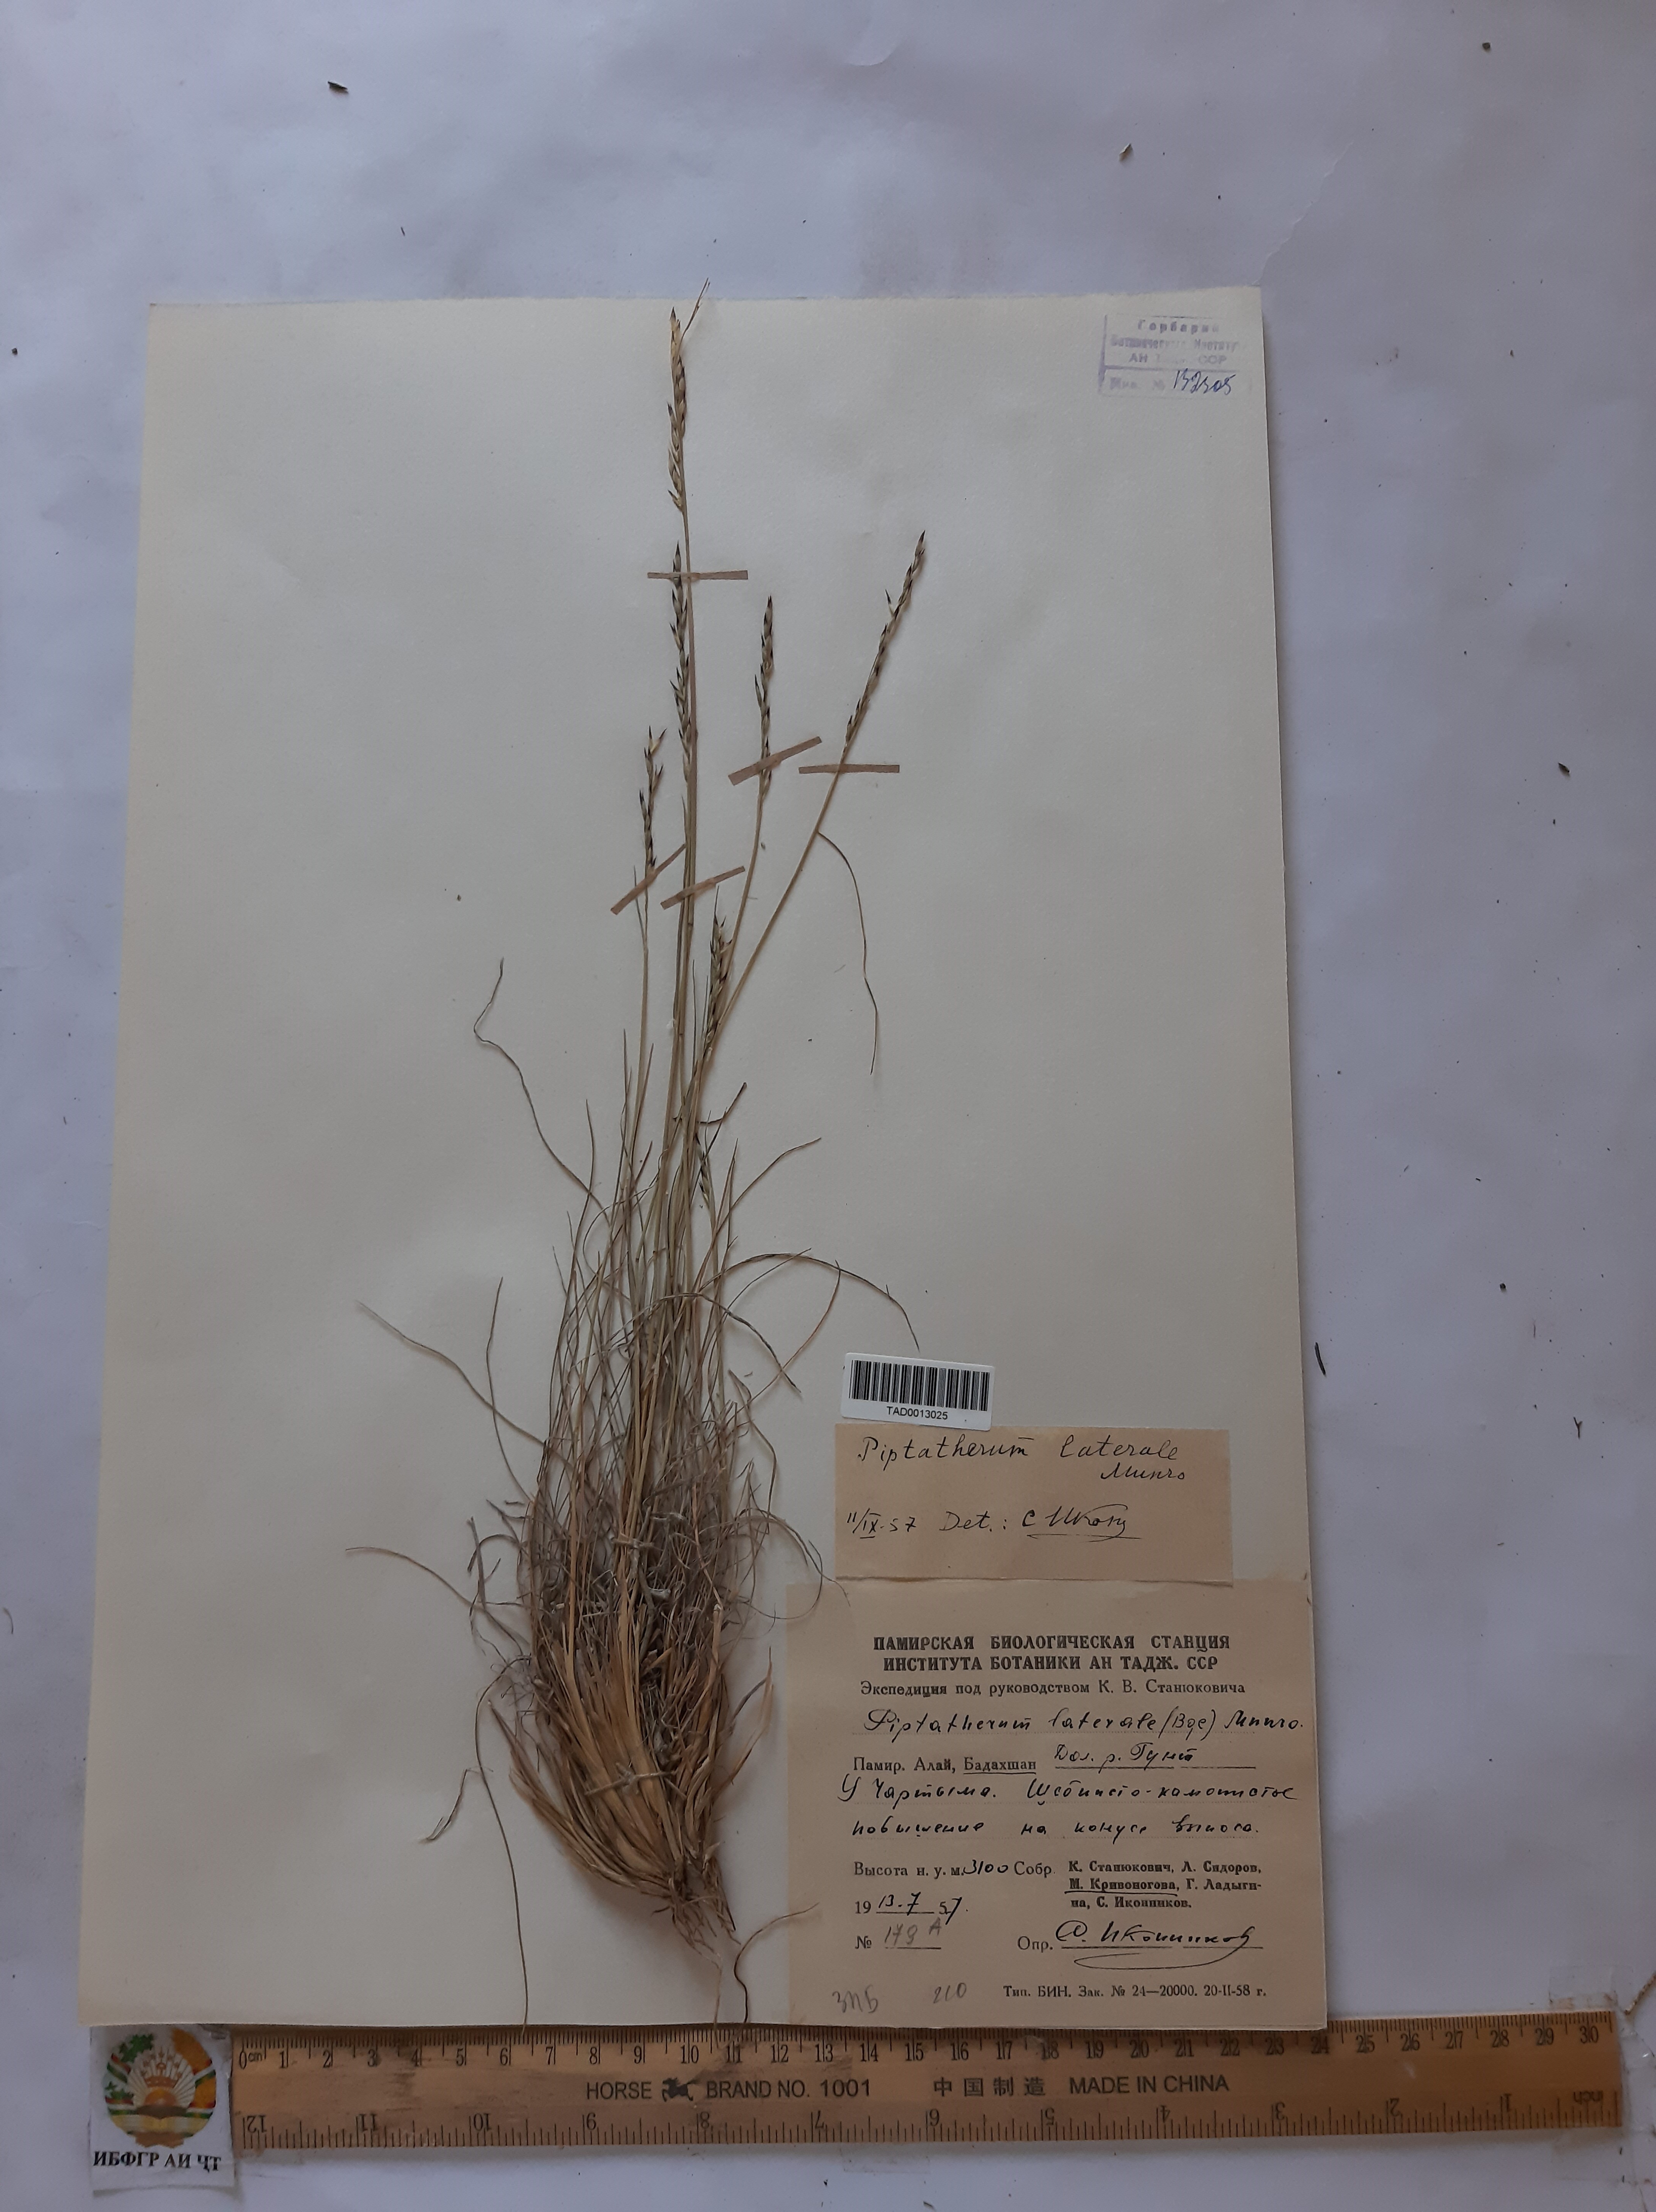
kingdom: Plantae
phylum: Tracheophyta
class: Liliopsida
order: Poales
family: Poaceae
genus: Piptatherum
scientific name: Piptatherum laterale
